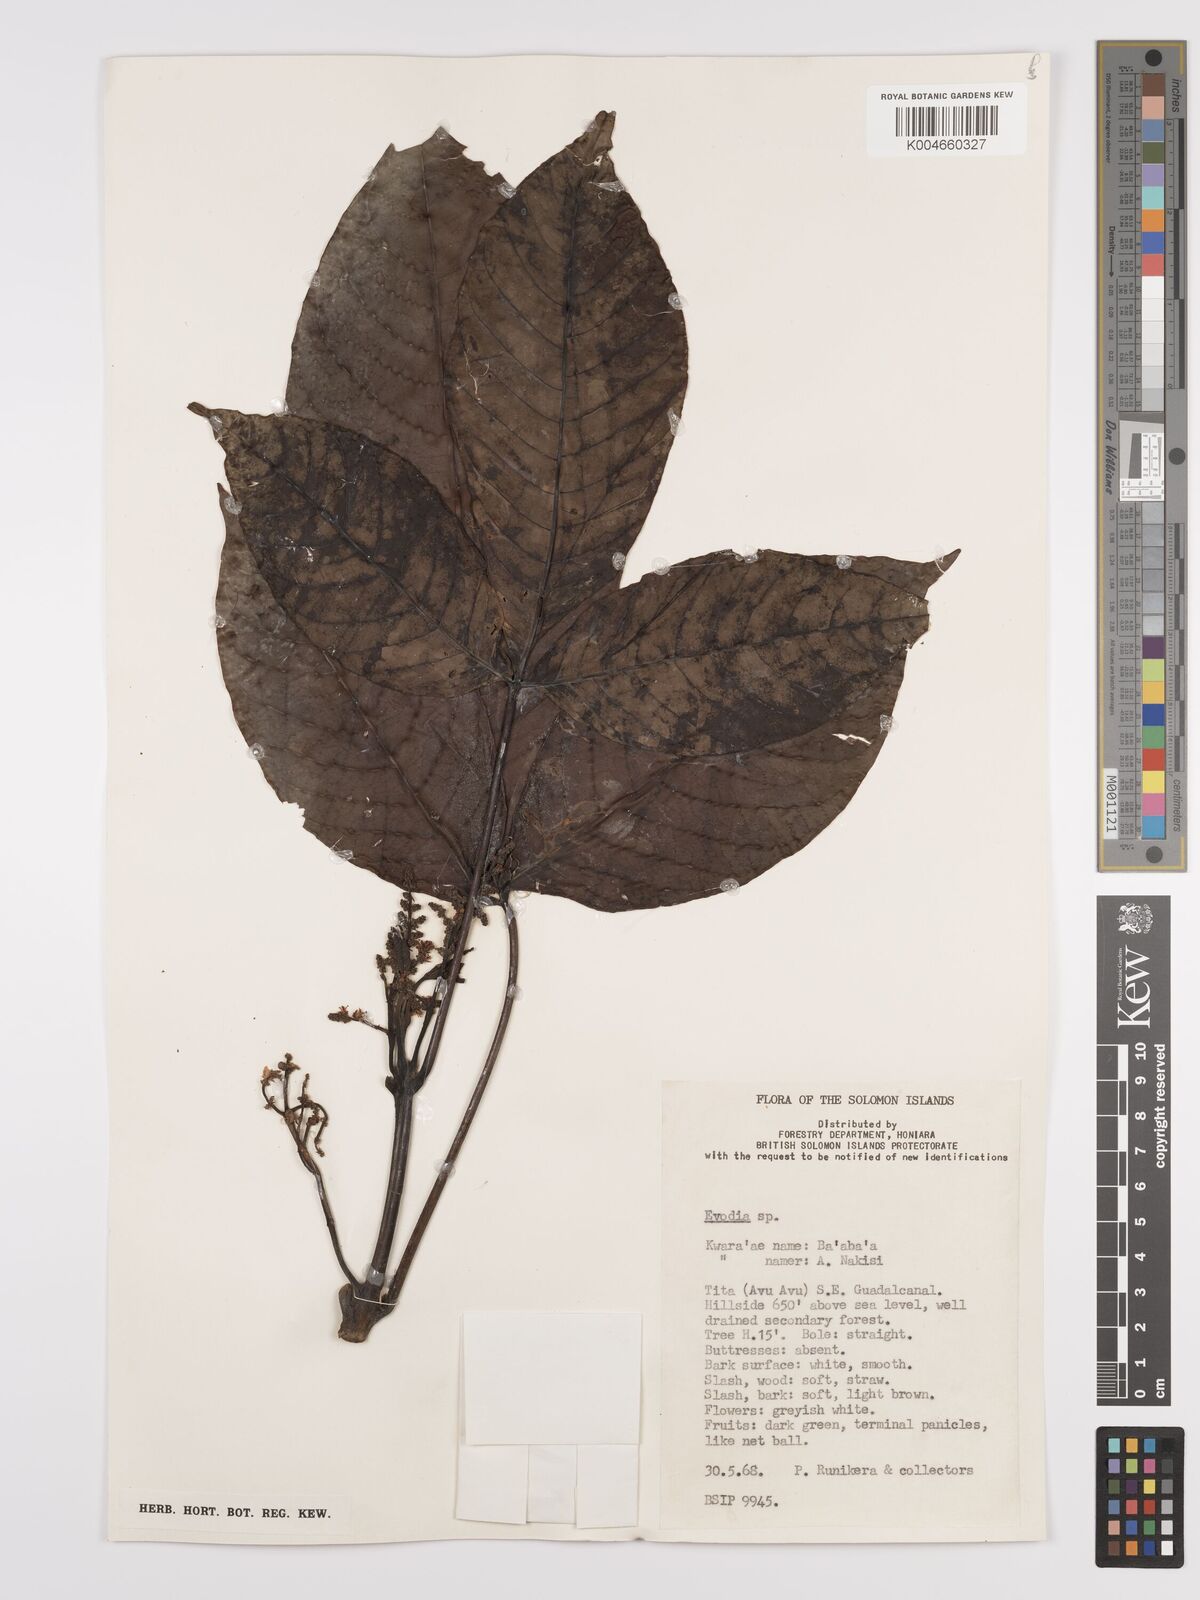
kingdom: Plantae
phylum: Tracheophyta
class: Magnoliopsida
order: Sapindales
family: Rutaceae
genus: Euodia
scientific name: Euodia
